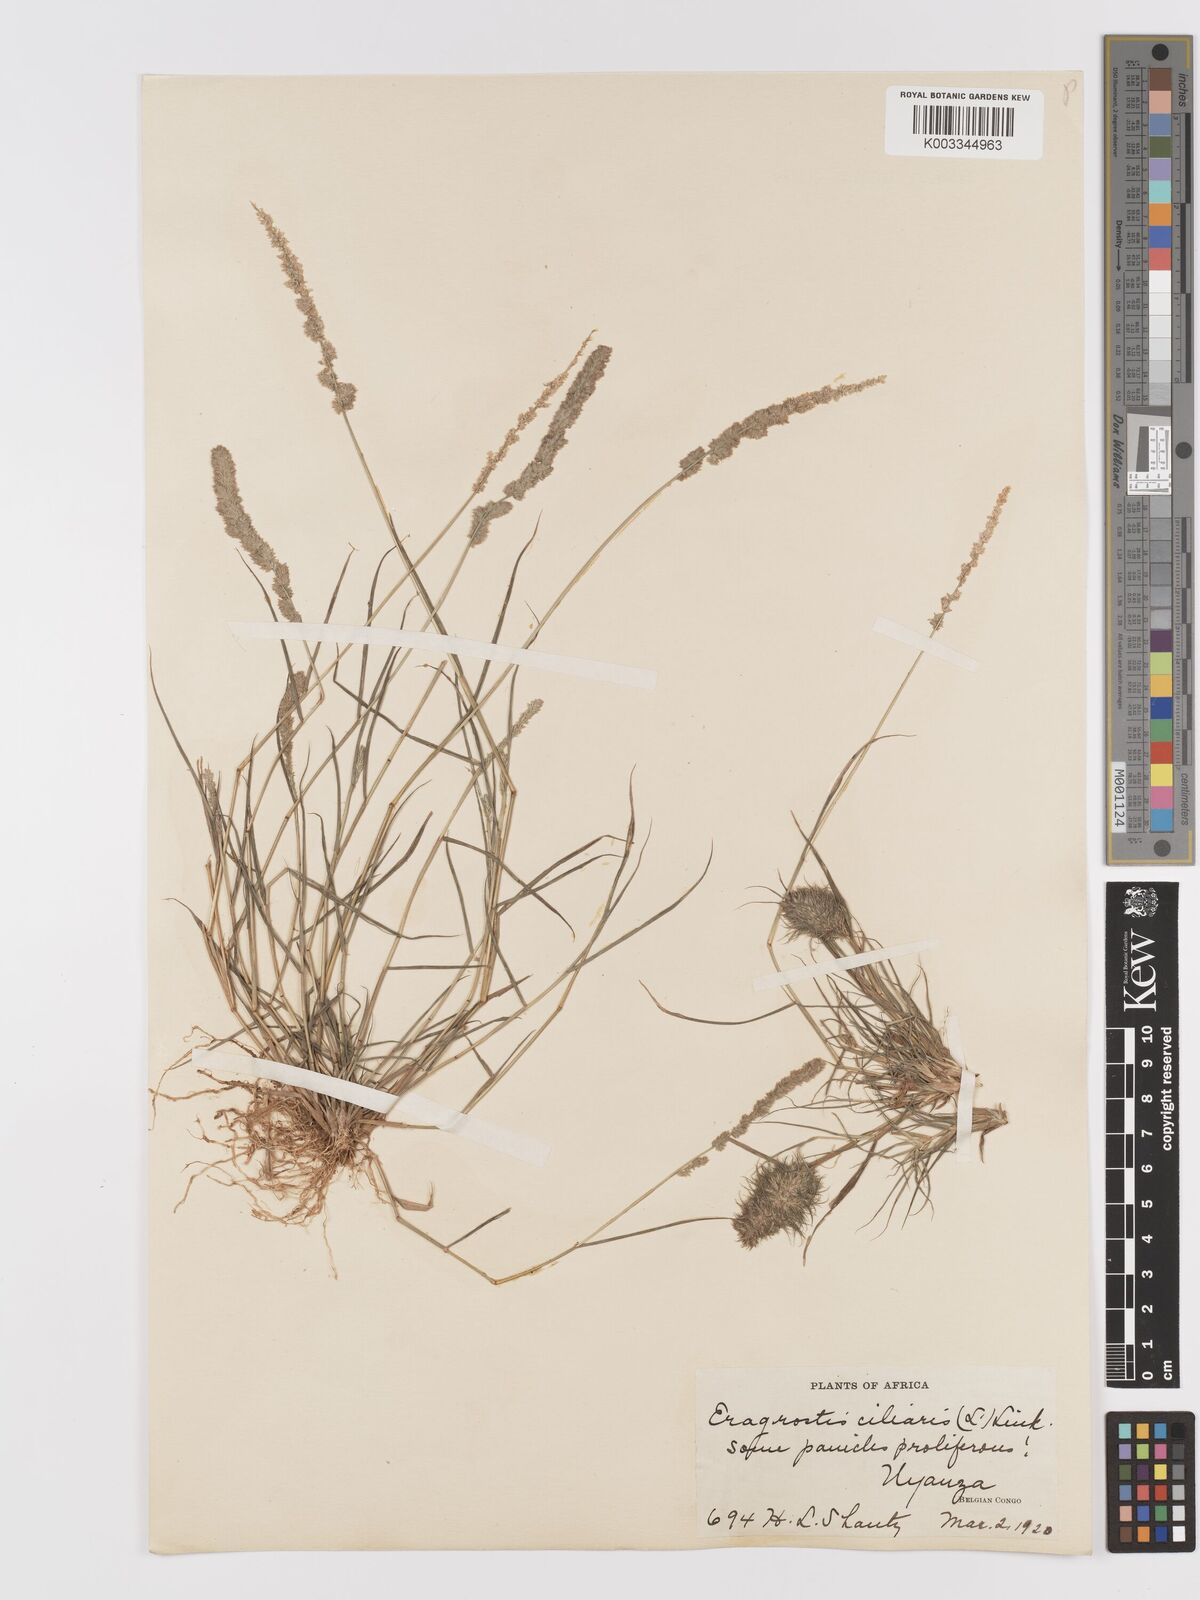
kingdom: Plantae
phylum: Tracheophyta
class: Liliopsida
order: Poales
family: Poaceae
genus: Eragrostis
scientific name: Eragrostis ciliaris
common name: Gophertail lovegrass
